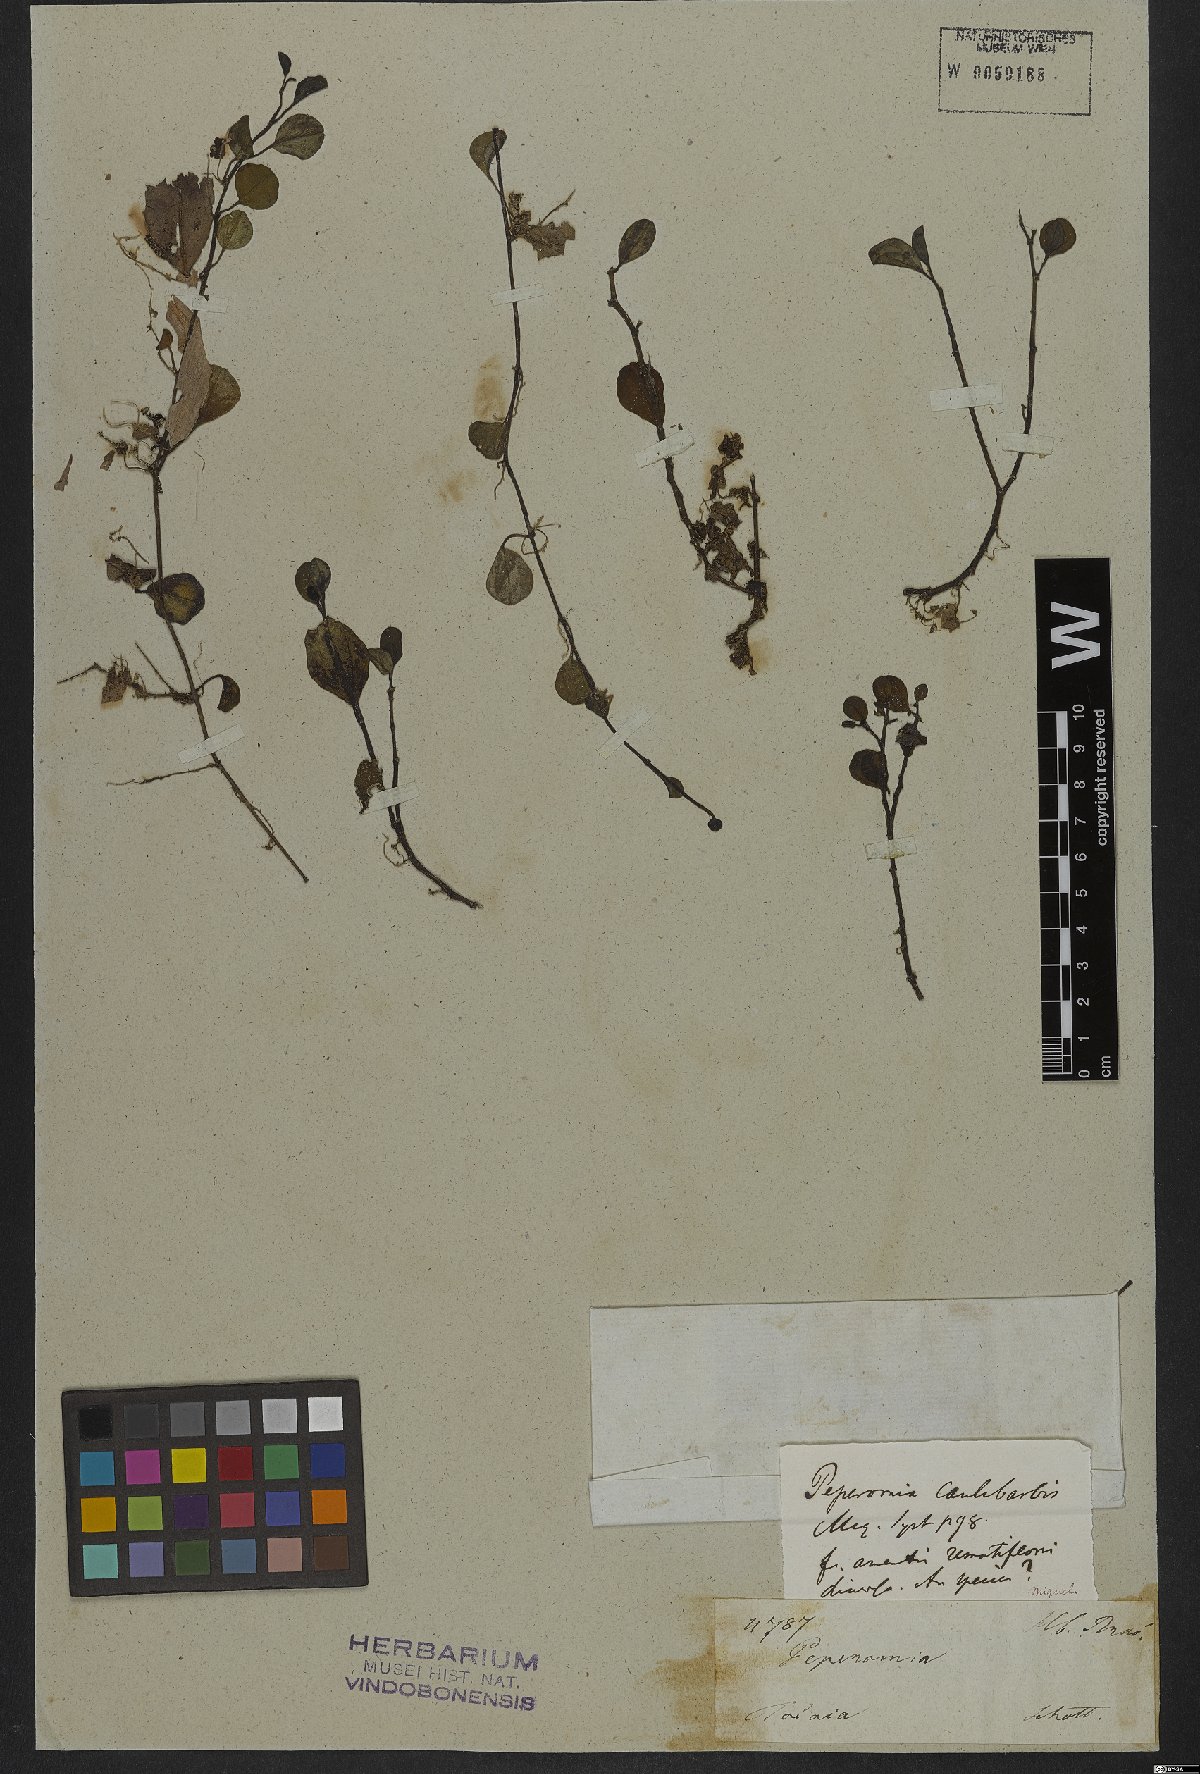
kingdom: Plantae
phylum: Tracheophyta
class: Magnoliopsida
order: Piperales
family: Piperaceae
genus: Peperomia
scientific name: Peperomia glabella
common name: Cypress peperomia
